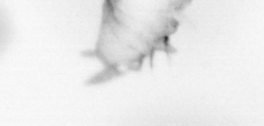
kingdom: Animalia
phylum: Annelida
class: Polychaeta
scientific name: Polychaeta
